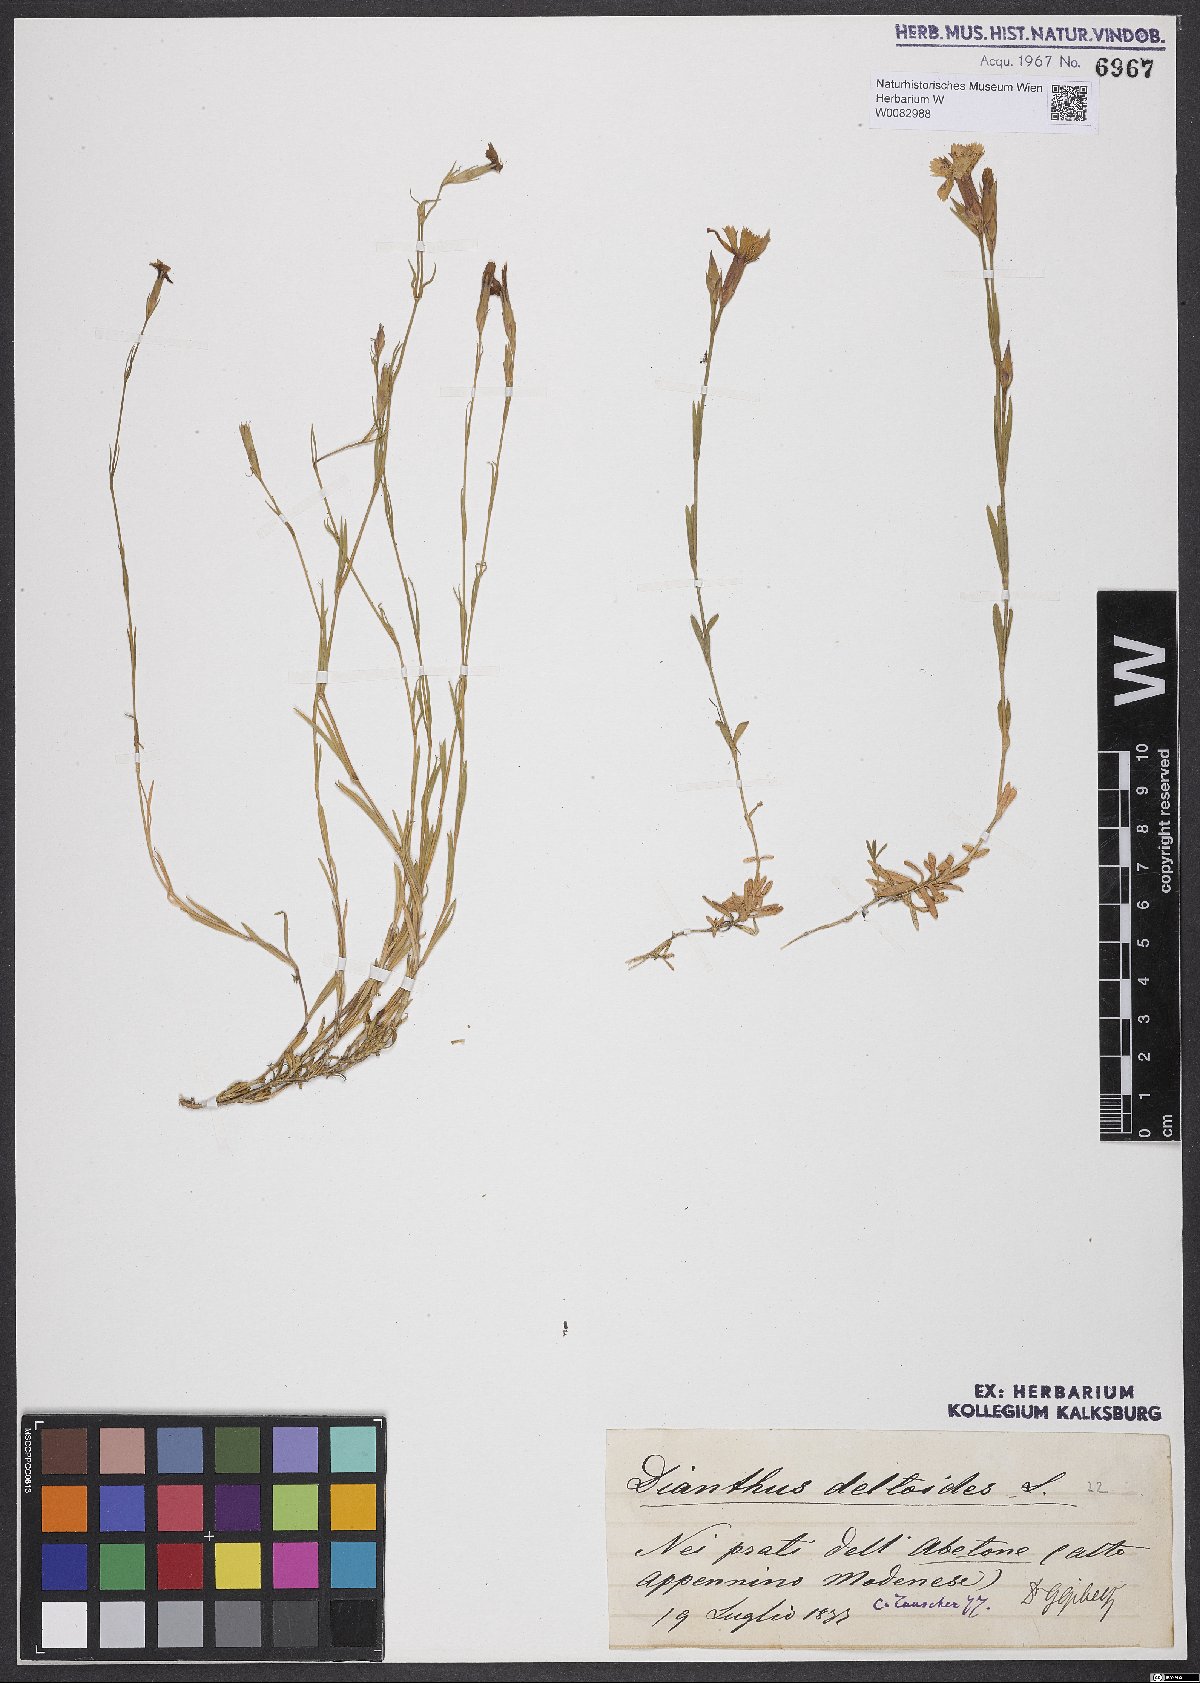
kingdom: Plantae
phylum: Tracheophyta
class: Magnoliopsida
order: Caryophyllales
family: Caryophyllaceae
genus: Dianthus
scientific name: Dianthus deltoides
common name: Maiden pink
